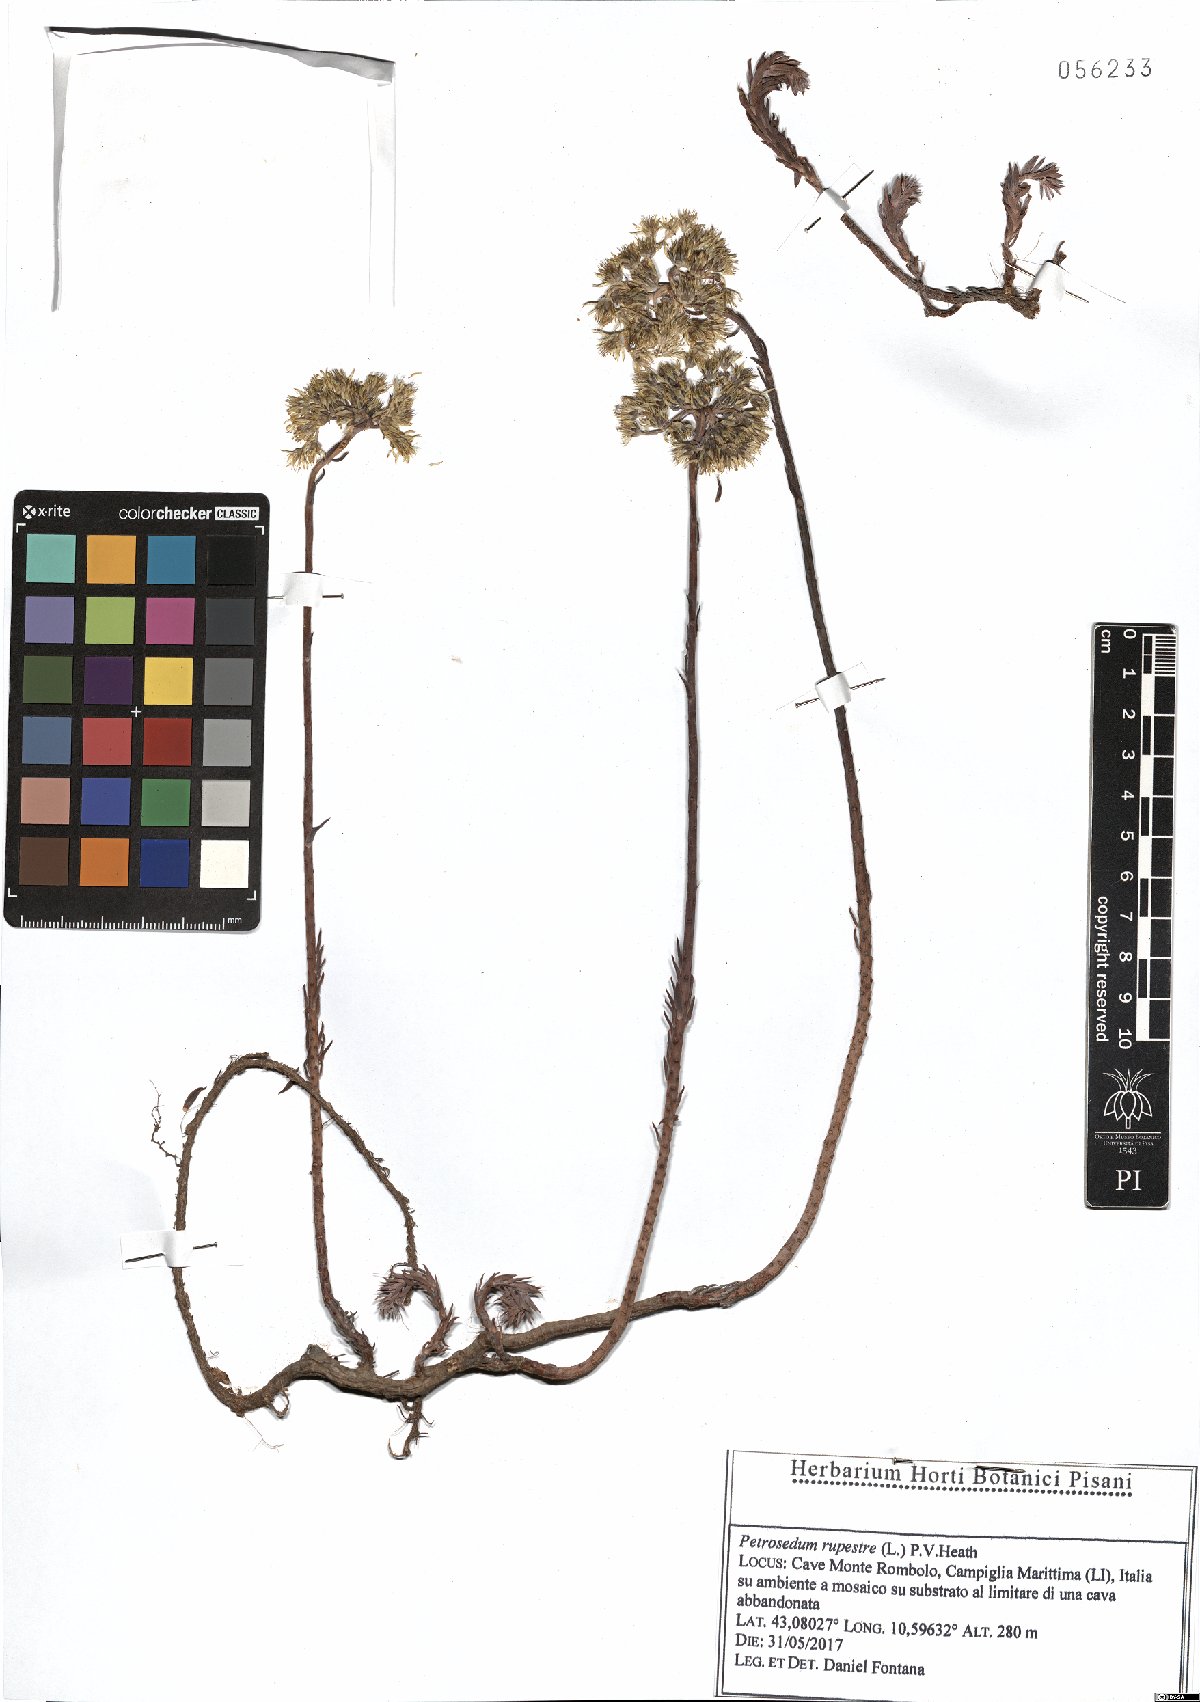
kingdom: Plantae
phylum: Tracheophyta
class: Magnoliopsida
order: Saxifragales
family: Crassulaceae
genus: Petrosedum
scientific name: Petrosedum rupestre
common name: Jenny's stonecrop
